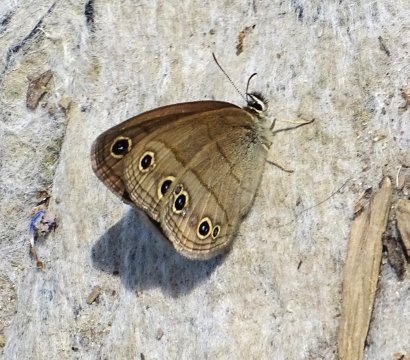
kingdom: Animalia
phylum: Arthropoda
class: Insecta
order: Lepidoptera
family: Nymphalidae
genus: Euptychia
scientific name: Euptychia cymela
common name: Little Wood Satyr
